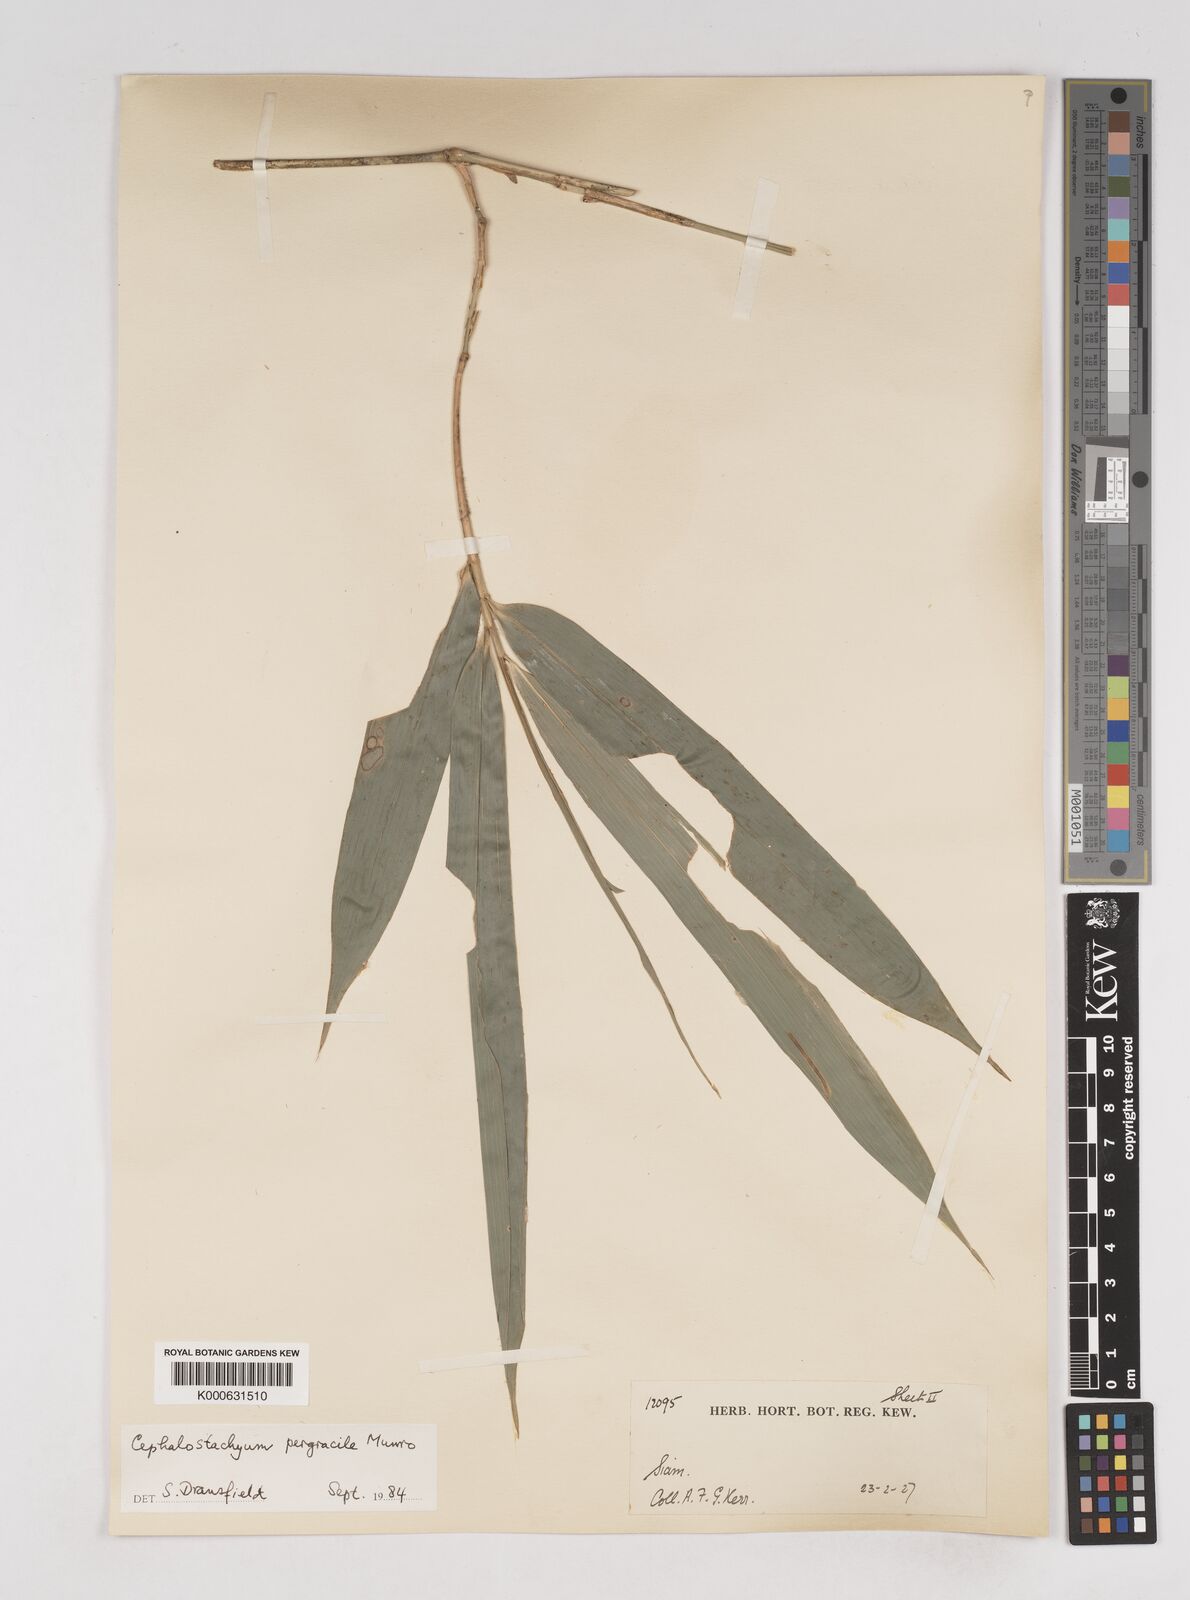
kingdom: Plantae
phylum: Tracheophyta
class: Liliopsida
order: Poales
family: Poaceae
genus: Schizostachyum
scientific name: Schizostachyum pergracile
